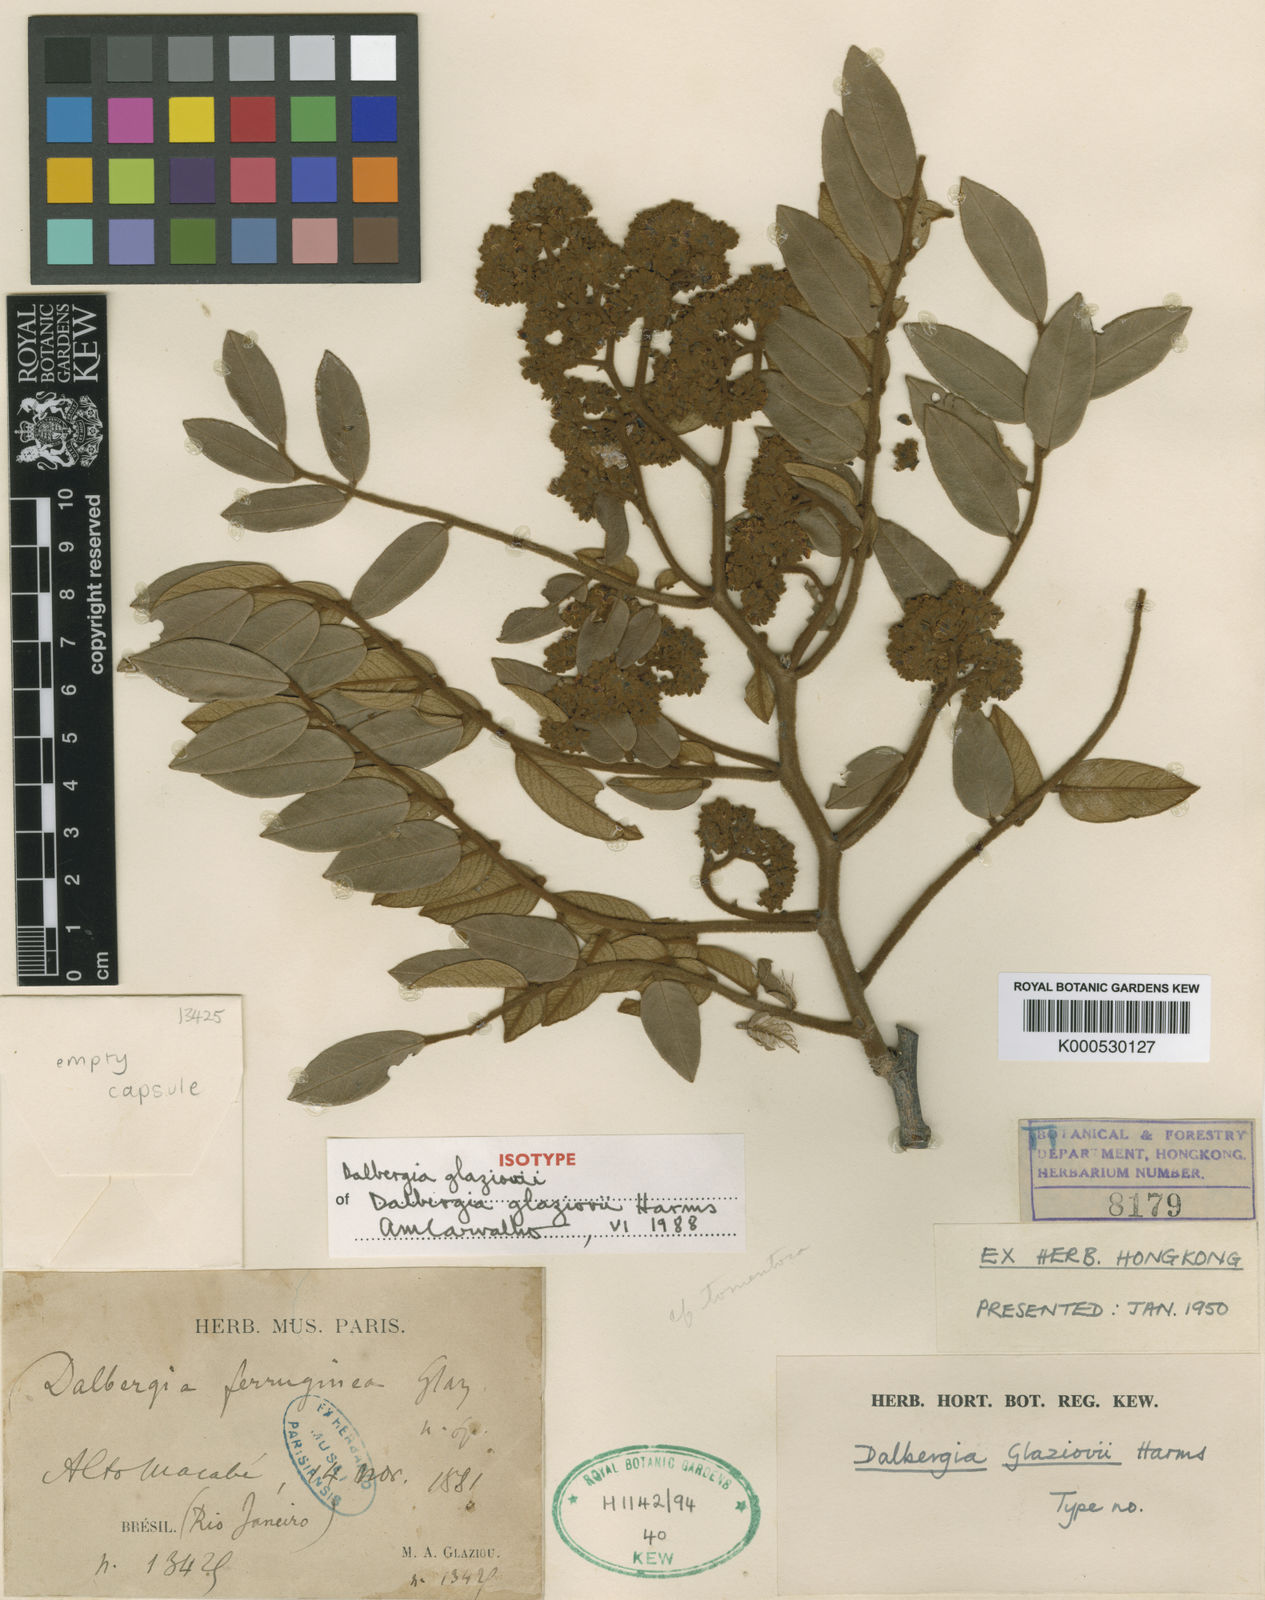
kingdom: Plantae
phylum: Tracheophyta
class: Magnoliopsida
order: Fabales
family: Fabaceae
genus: Dalbergia
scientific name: Dalbergia glaziovii
